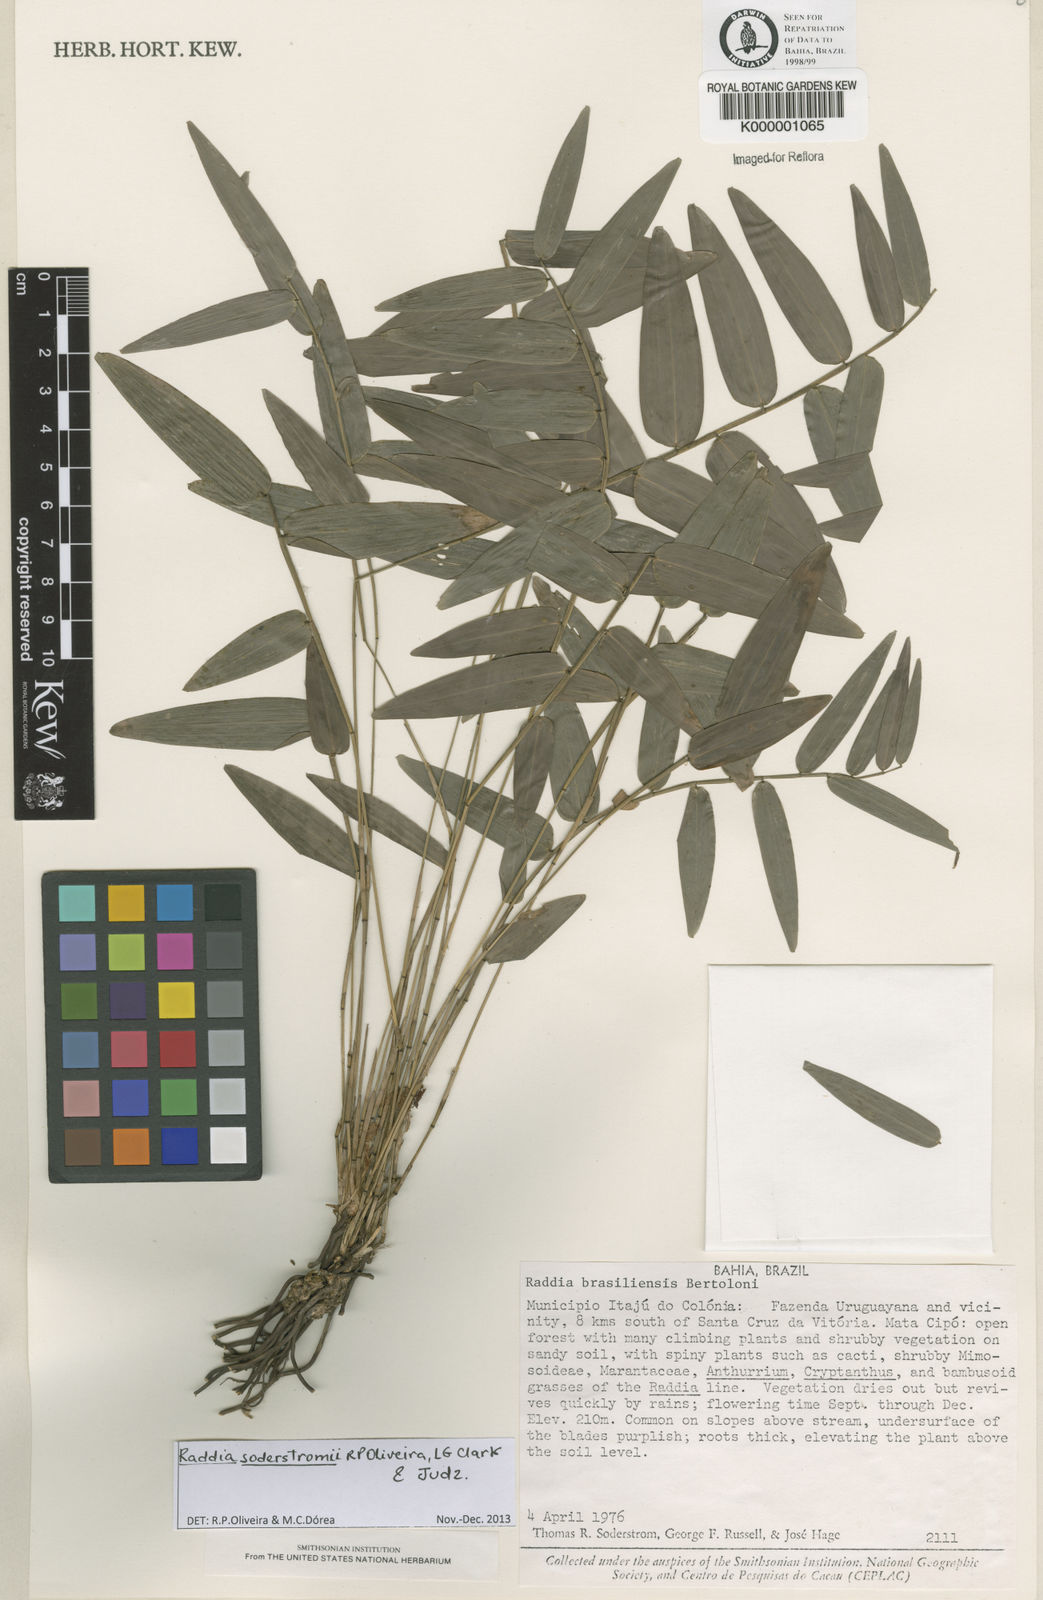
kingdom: Plantae
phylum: Tracheophyta
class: Liliopsida
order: Poales
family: Poaceae
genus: Raddia
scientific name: Raddia brasiliensis
